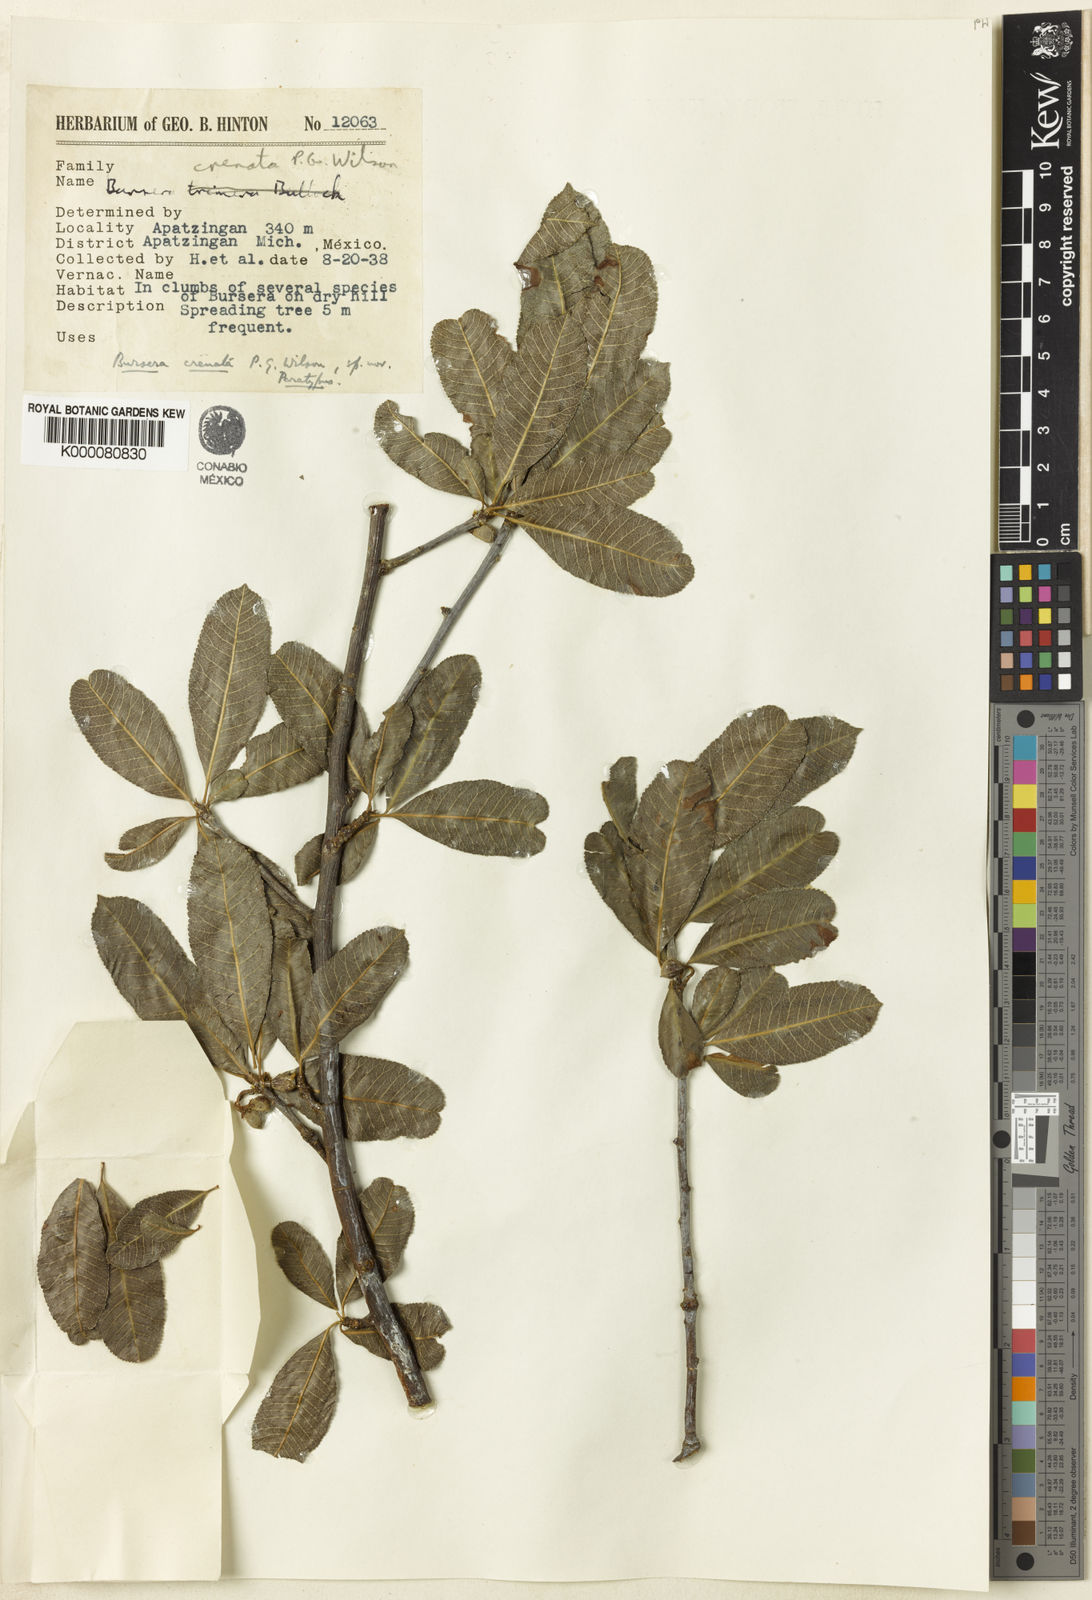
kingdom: Plantae
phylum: Tracheophyta
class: Magnoliopsida
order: Sapindales
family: Burseraceae
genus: Bursera
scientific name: Bursera crenata
